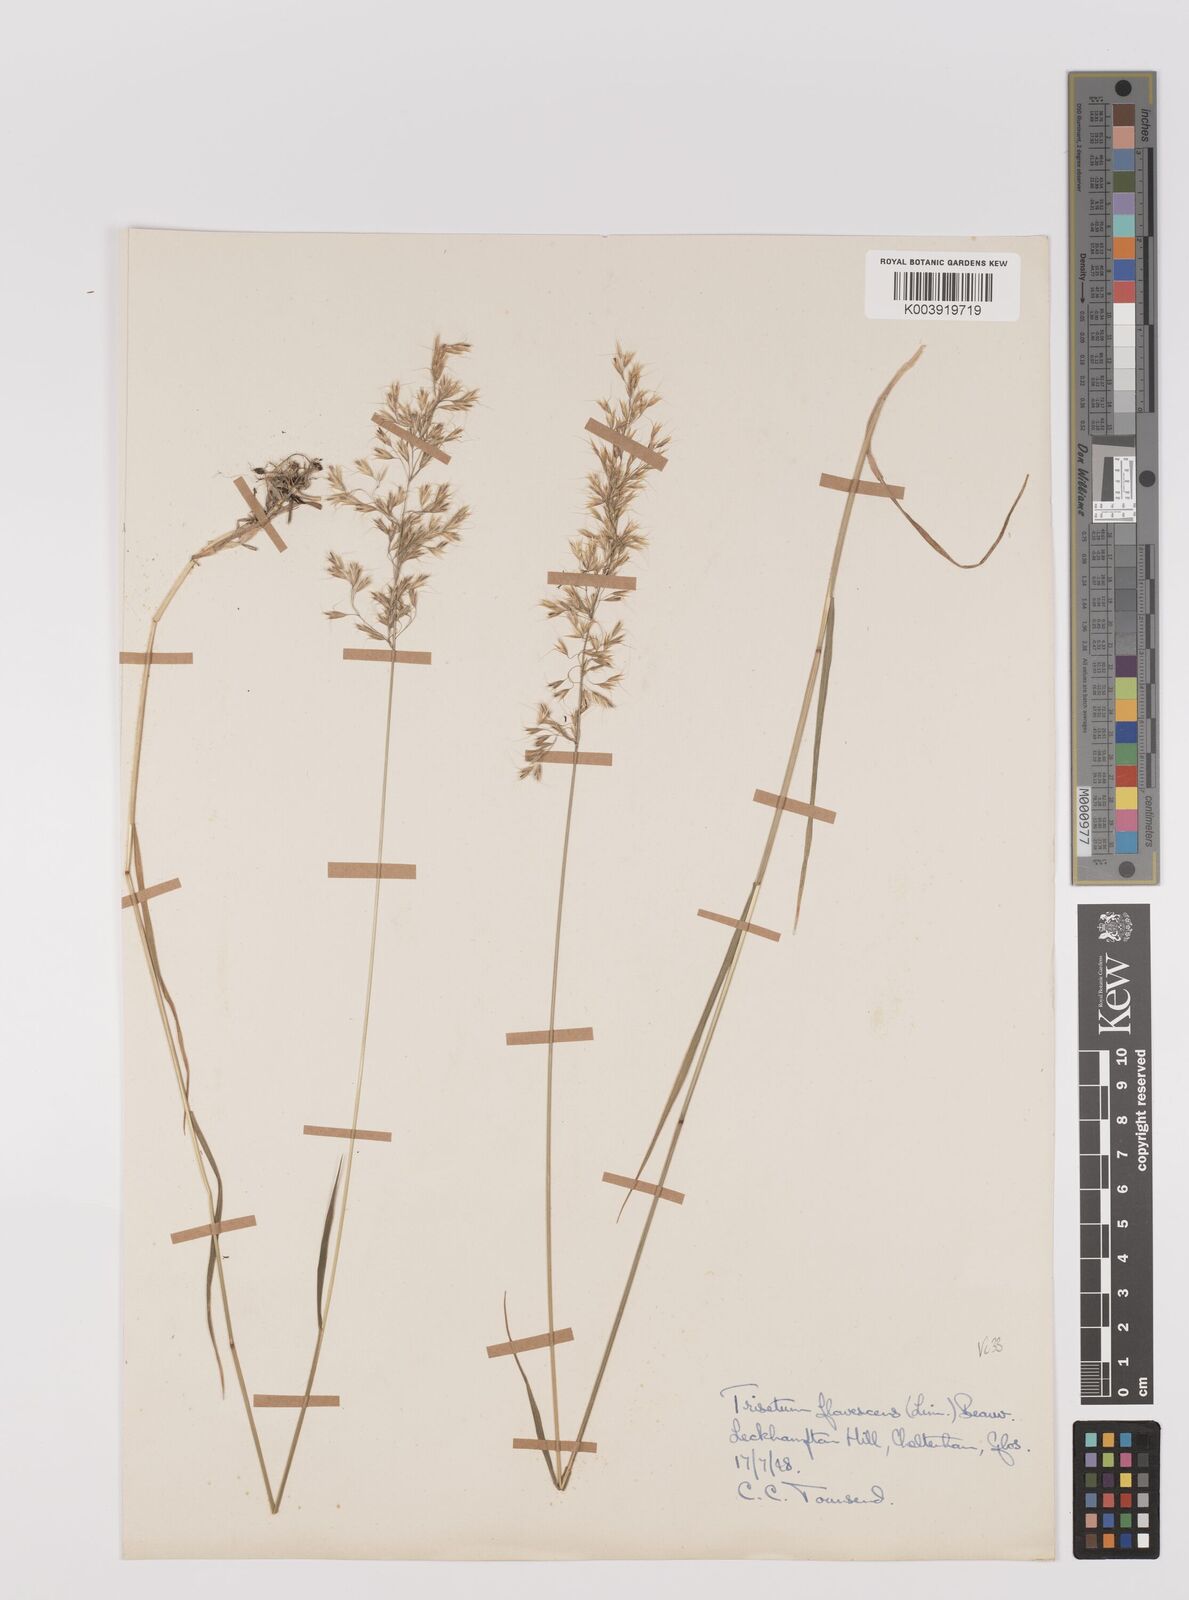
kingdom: Plantae
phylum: Tracheophyta
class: Liliopsida
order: Poales
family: Poaceae
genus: Trisetum
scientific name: Trisetum flavescens
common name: Yellow oat-grass
